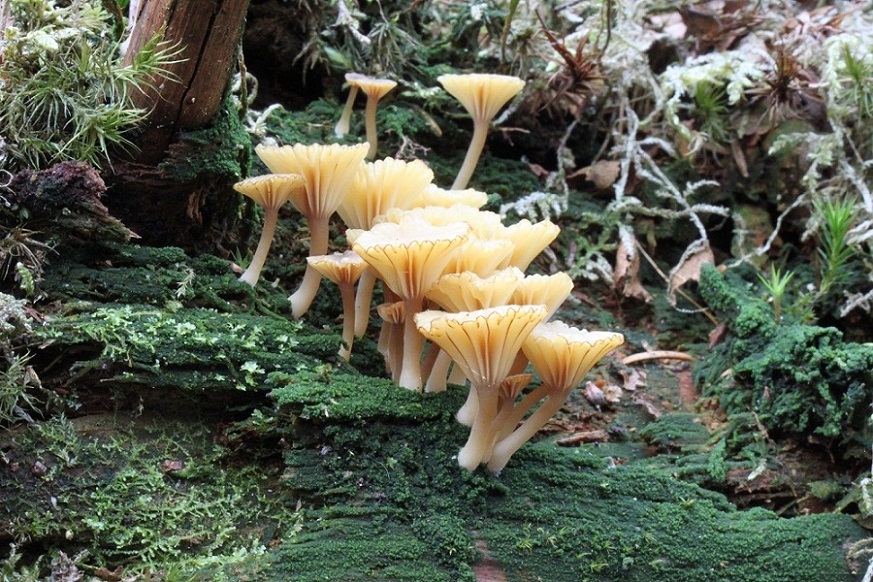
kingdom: Fungi
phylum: Basidiomycota
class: Agaricomycetes
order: Agaricales
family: Hygrophoraceae
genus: Lichenomphalia
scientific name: Lichenomphalia umbellifera
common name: tørve-lavhat
